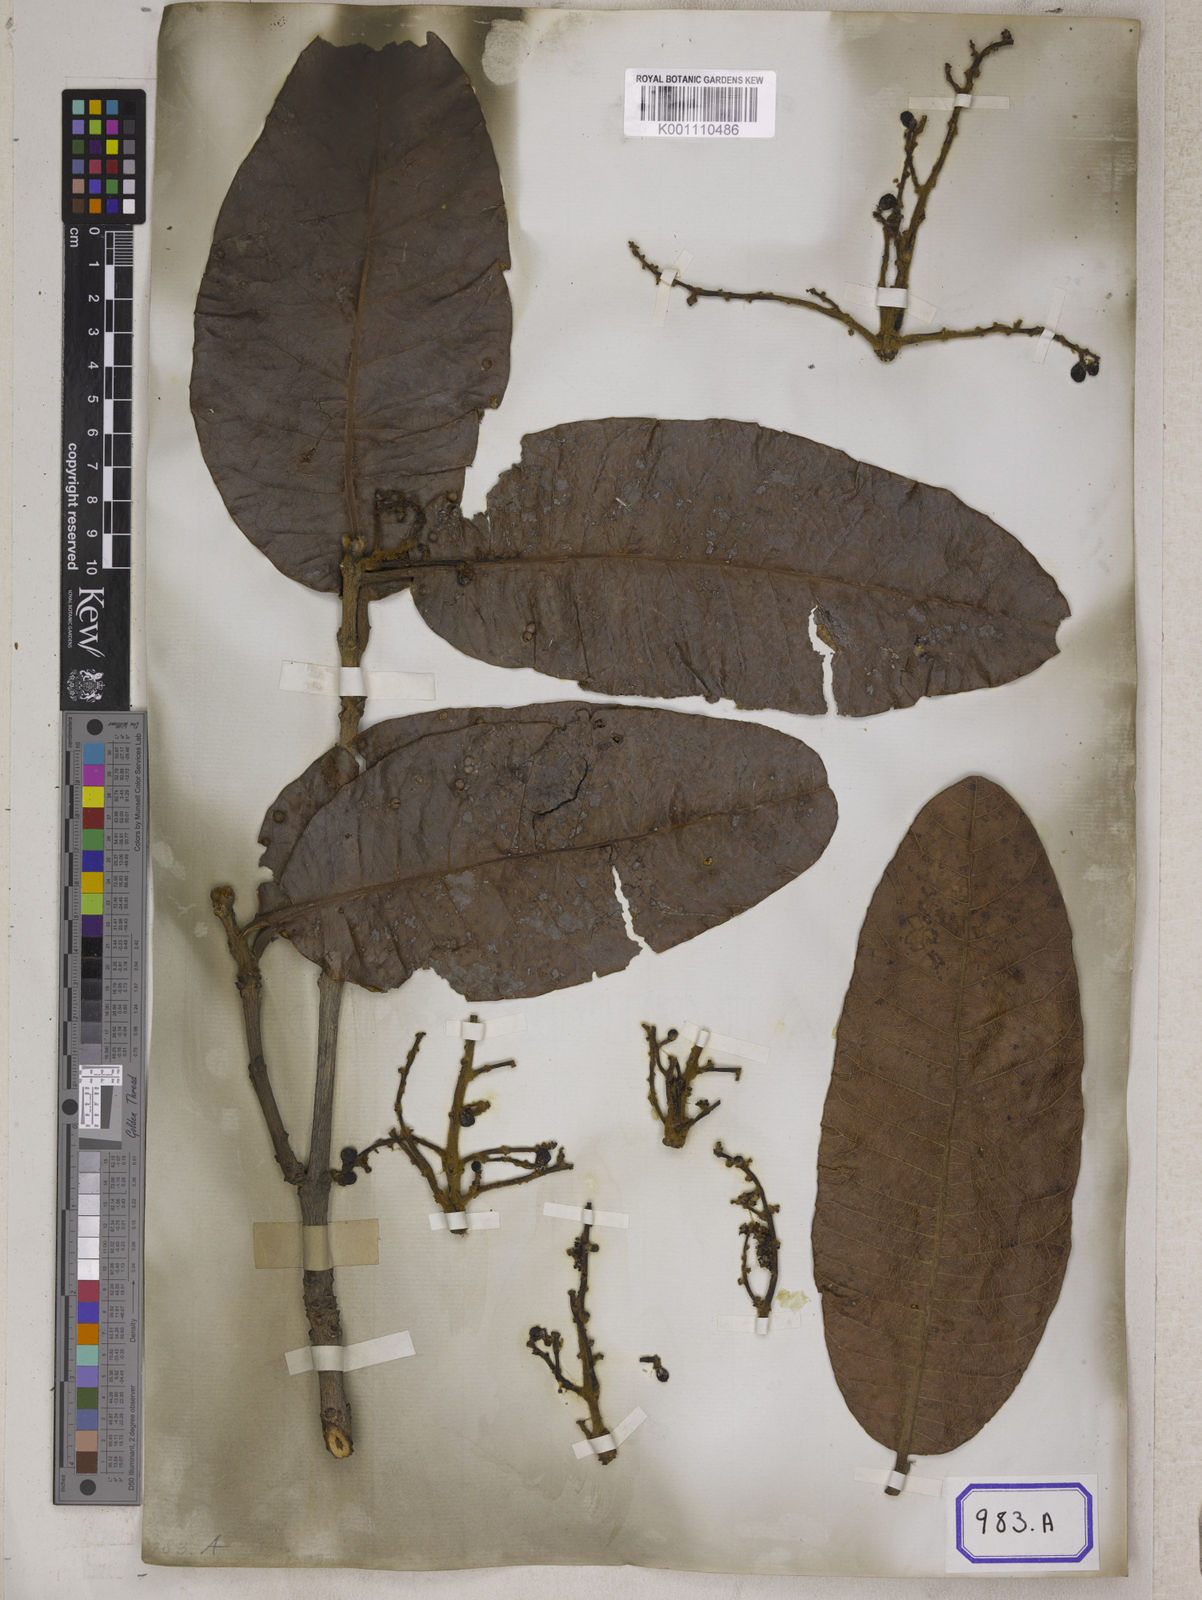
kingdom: Plantae
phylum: Tracheophyta
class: Magnoliopsida
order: Sapindales
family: Anacardiaceae
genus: Buchanania
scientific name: Buchanania cochinchinensis
